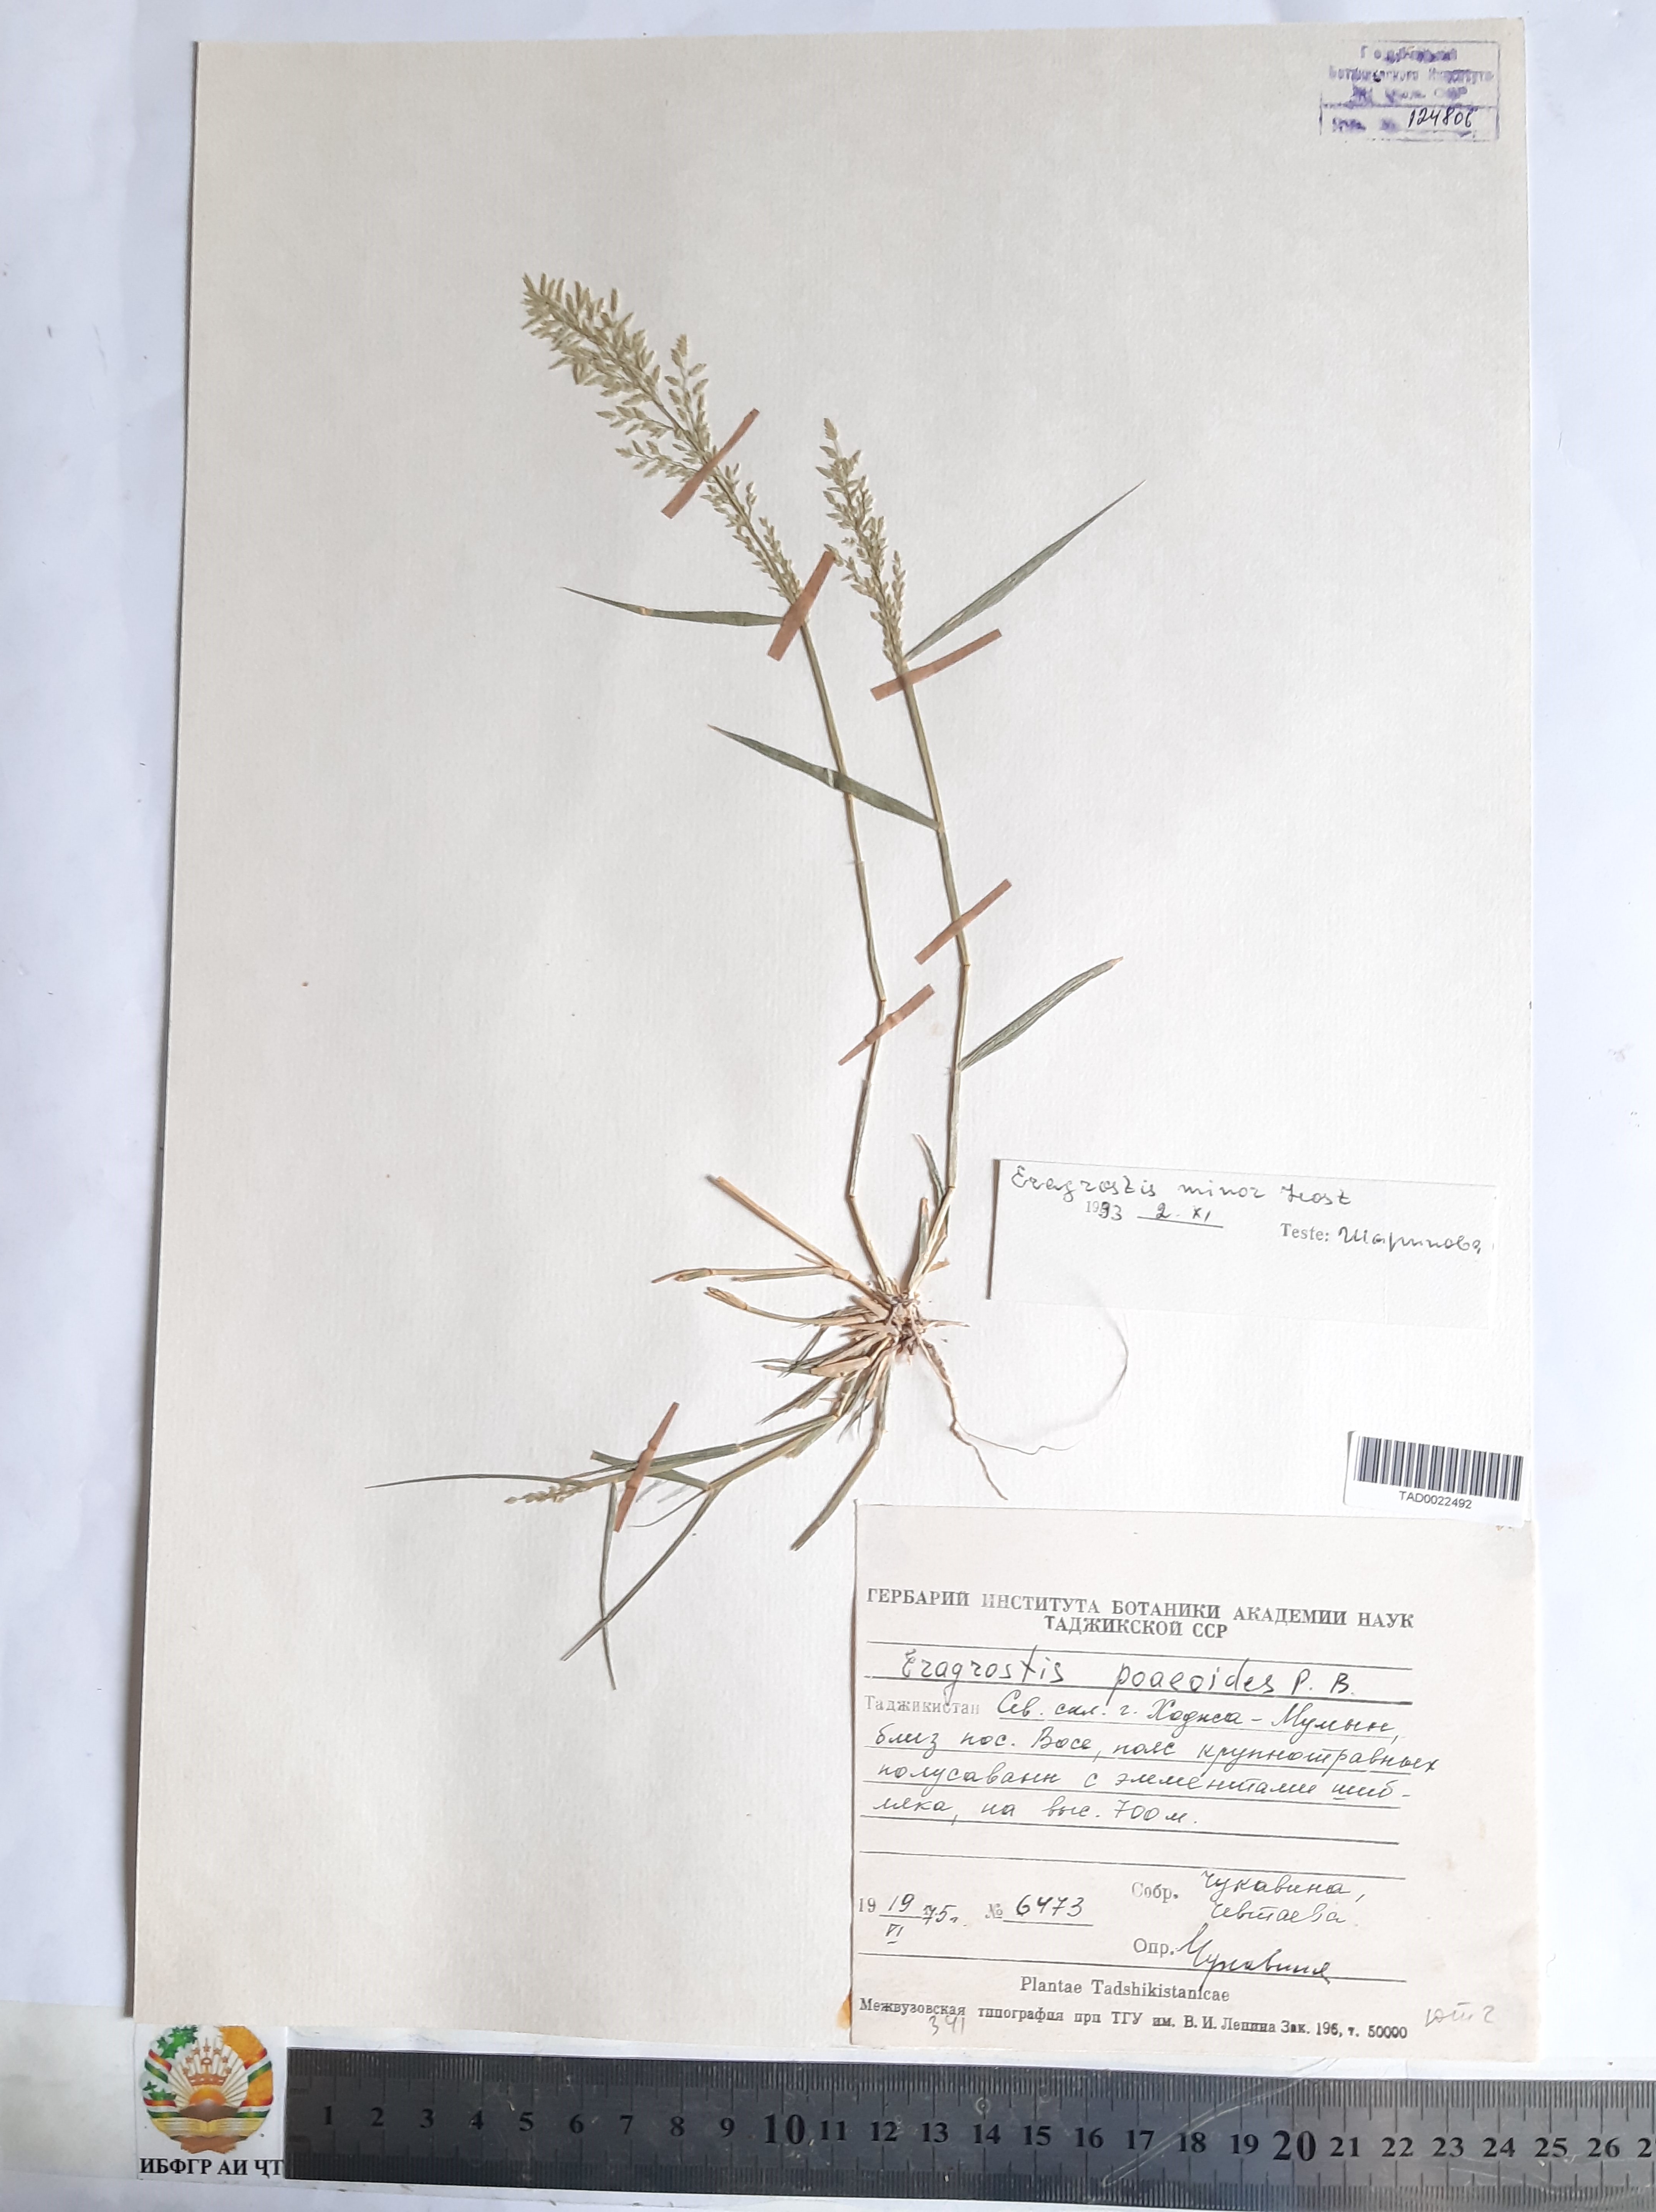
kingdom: Plantae
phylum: Tracheophyta
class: Liliopsida
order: Poales
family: Poaceae
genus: Eragrostis
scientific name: Eragrostis minor
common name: Small love-grass
